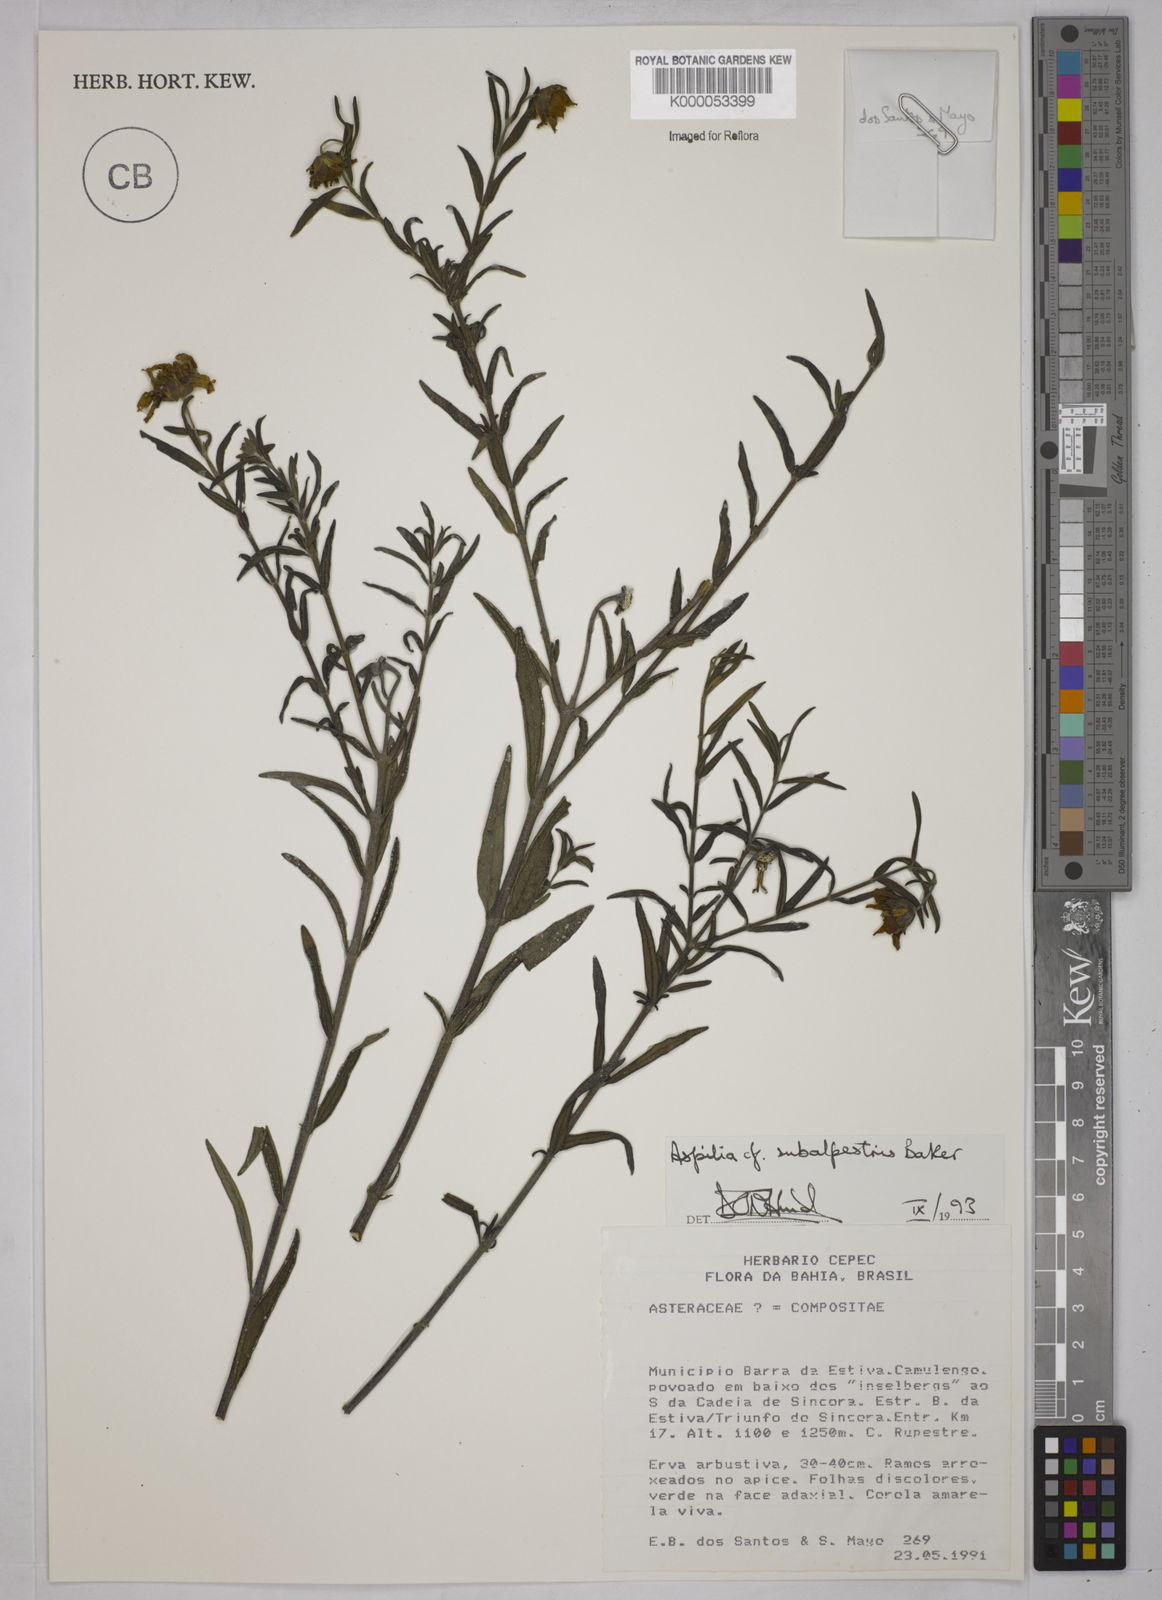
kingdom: Plantae
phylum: Tracheophyta
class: Magnoliopsida
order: Asterales
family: Asteraceae
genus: Wedelia
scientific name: Wedelia subalpestris
